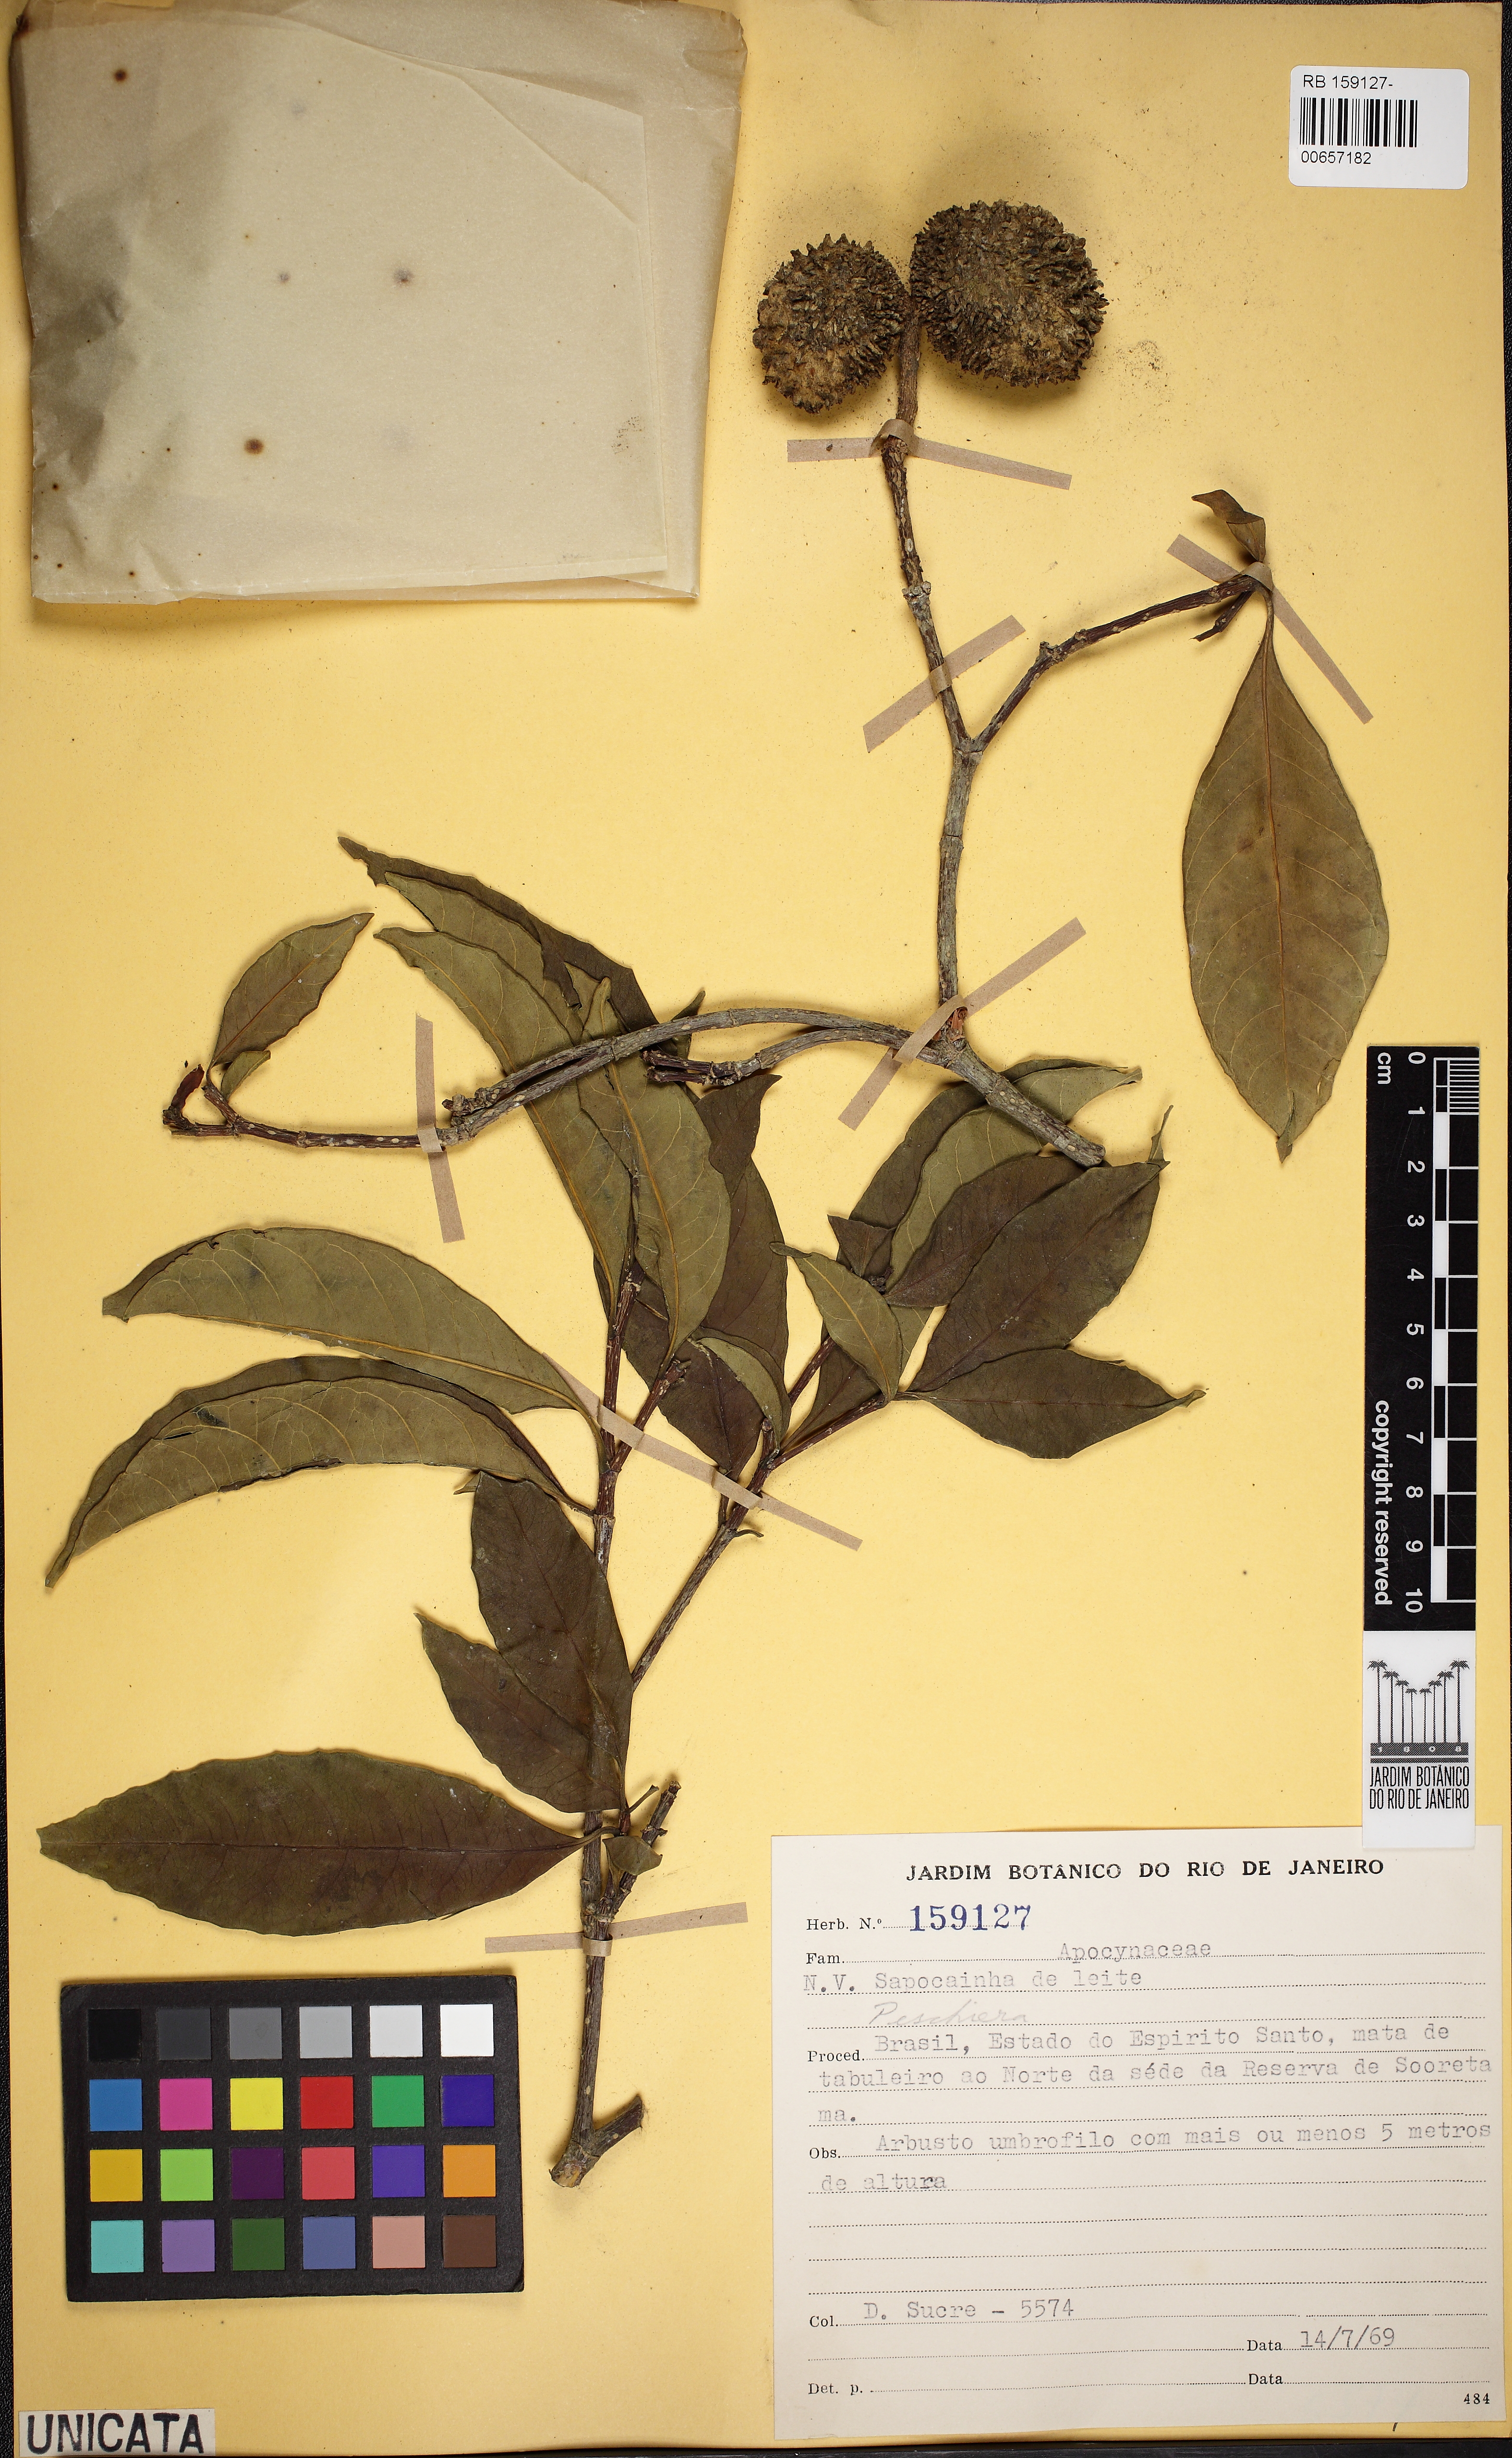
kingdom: Plantae
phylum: Tracheophyta
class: Magnoliopsida
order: Gentianales
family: Apocynaceae
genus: Tabernaemontana
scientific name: Tabernaemontana
